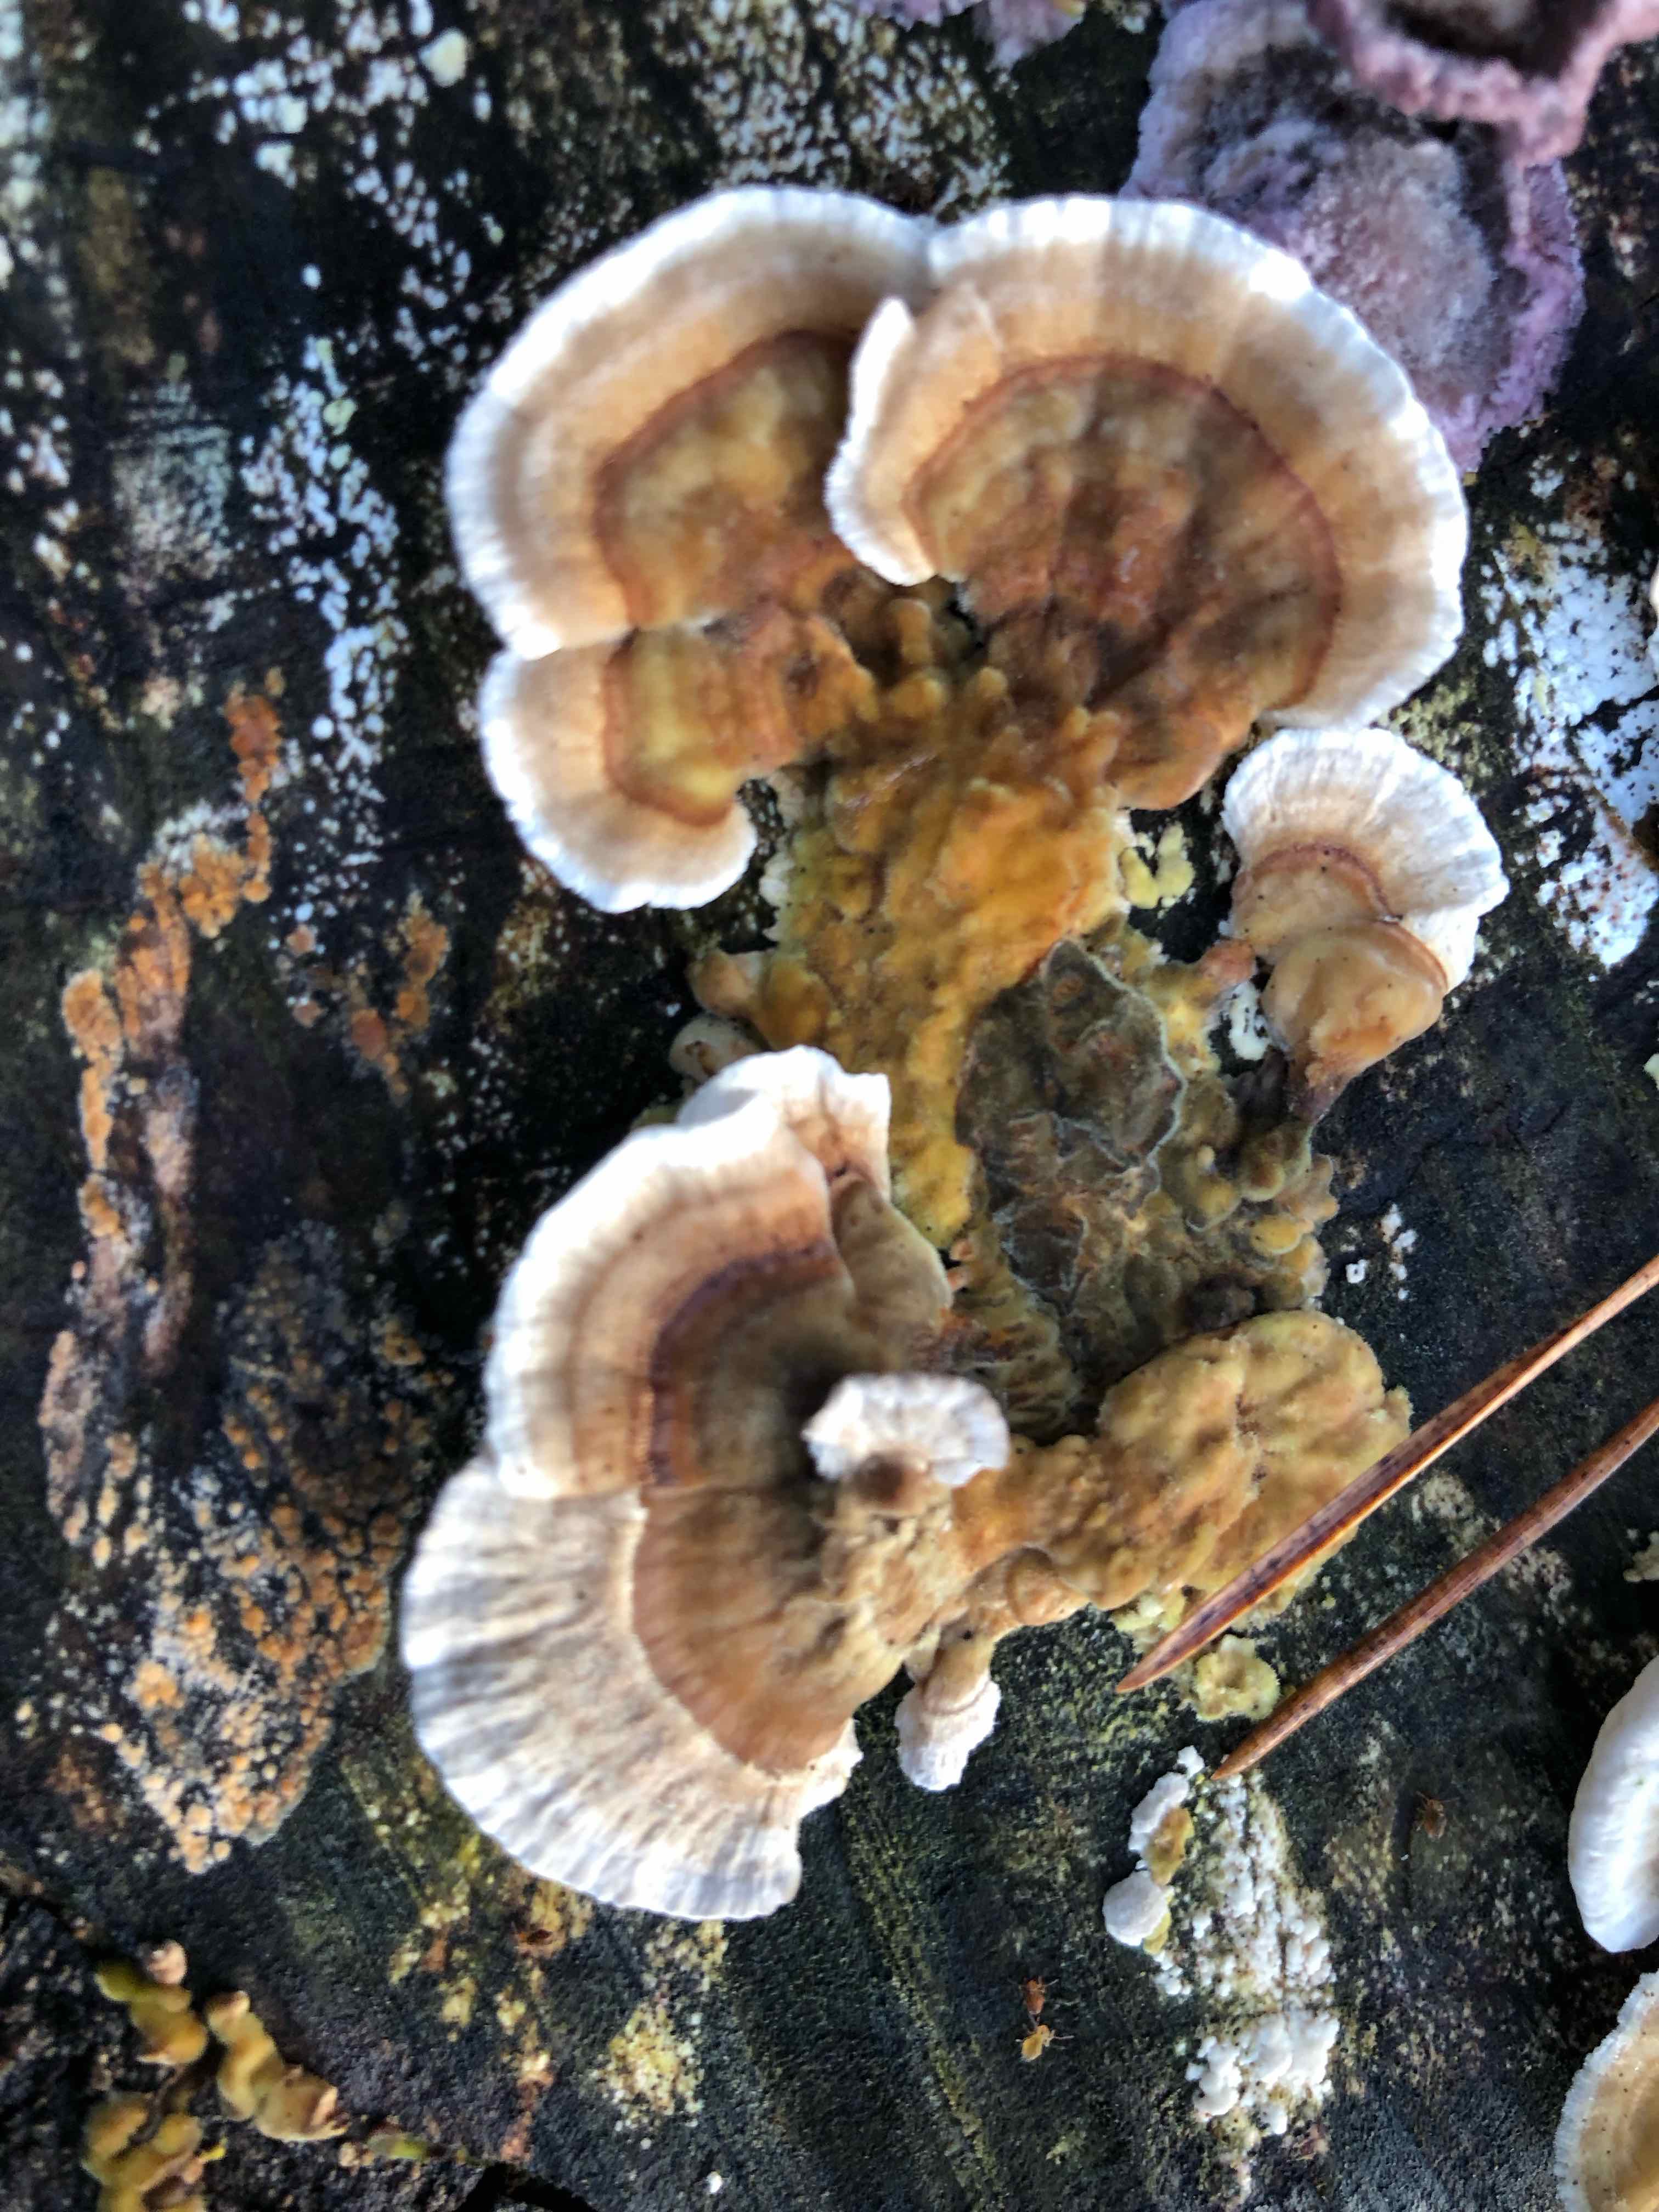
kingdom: Fungi
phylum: Basidiomycota
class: Agaricomycetes
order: Polyporales
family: Polyporaceae
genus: Trametes
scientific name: Trametes versicolor
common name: broget læderporesvamp
